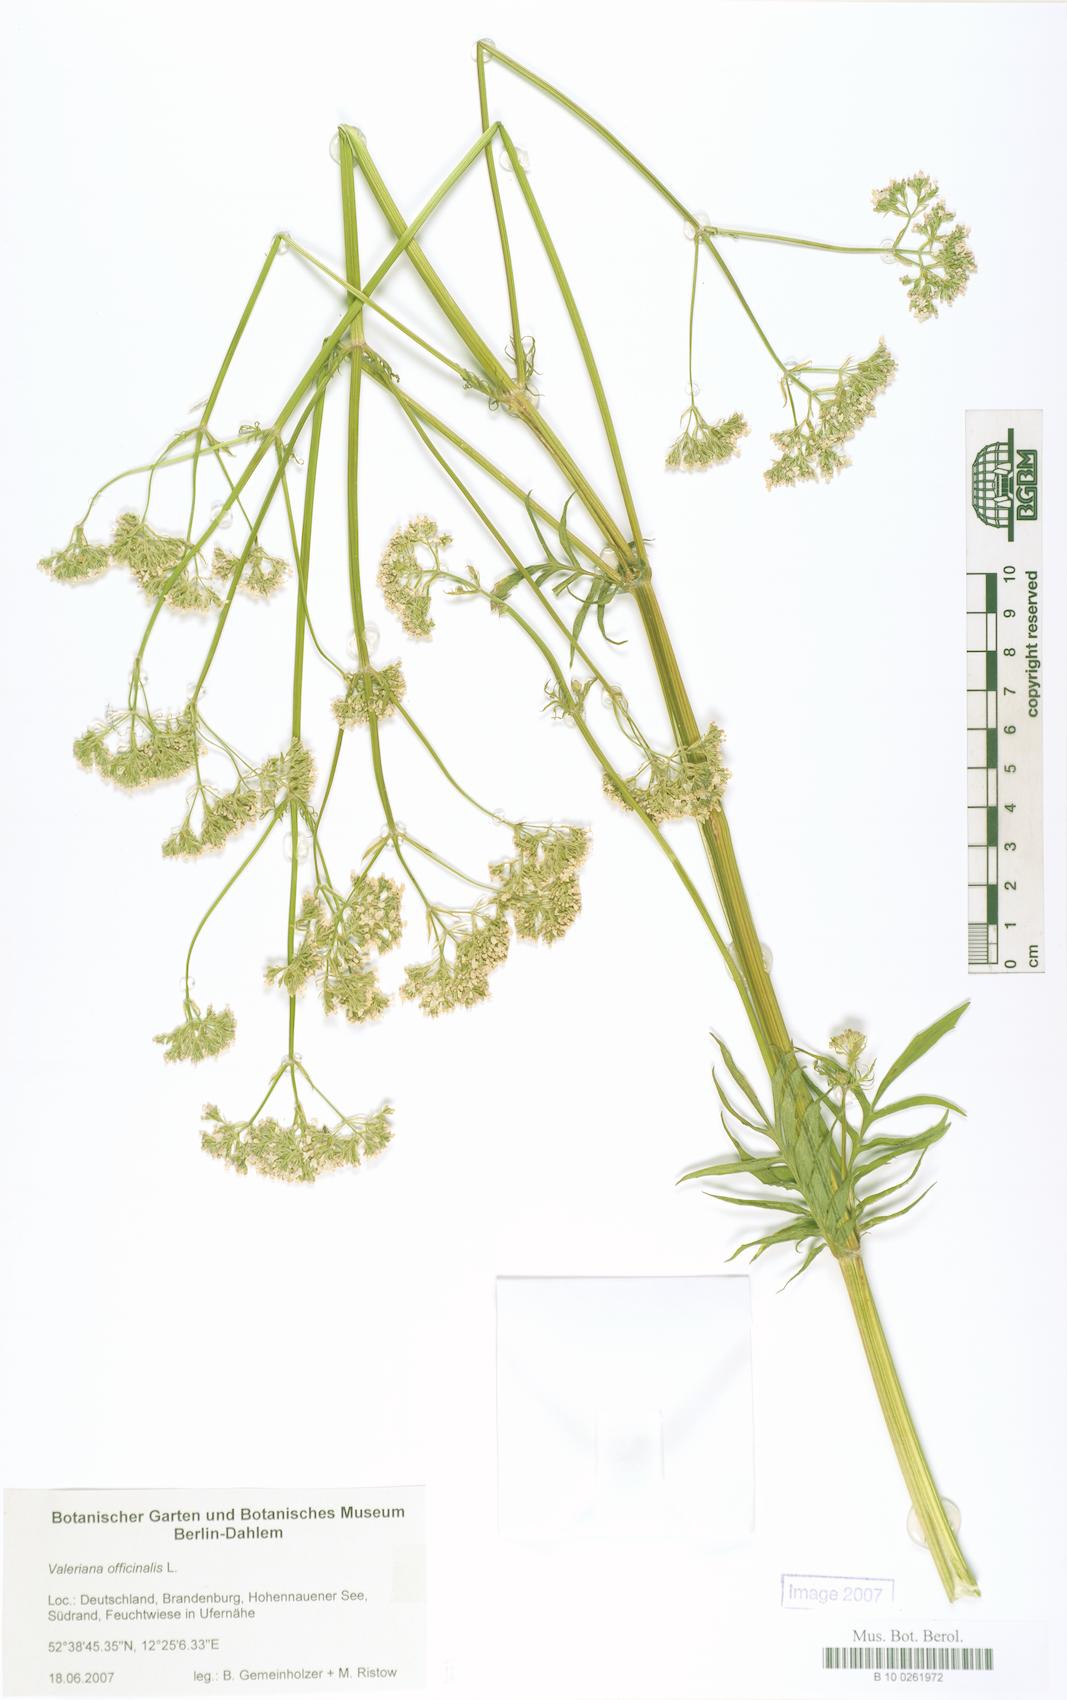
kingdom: Plantae
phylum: Tracheophyta
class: Magnoliopsida
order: Dipsacales
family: Caprifoliaceae
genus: Valeriana
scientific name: Valeriana
